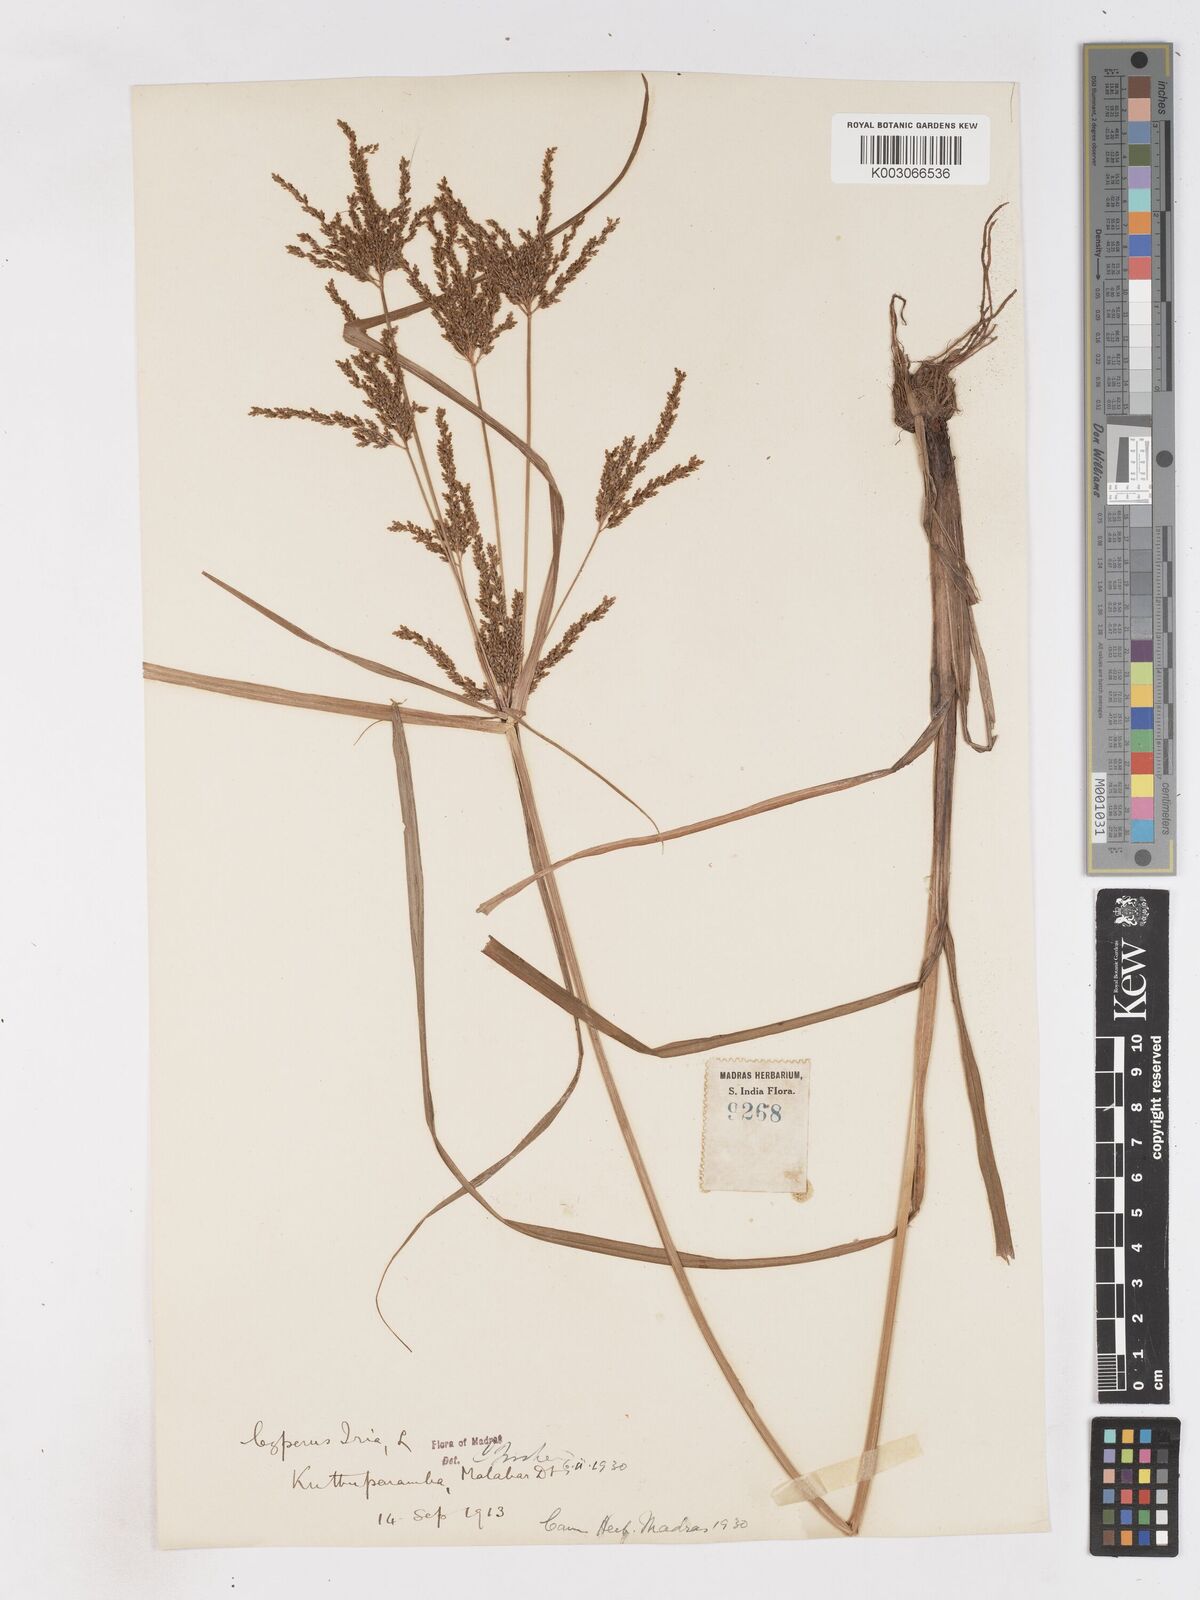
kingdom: Plantae
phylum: Tracheophyta
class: Liliopsida
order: Poales
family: Cyperaceae
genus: Cyperus
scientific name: Cyperus iria
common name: Ricefield flatsedge
